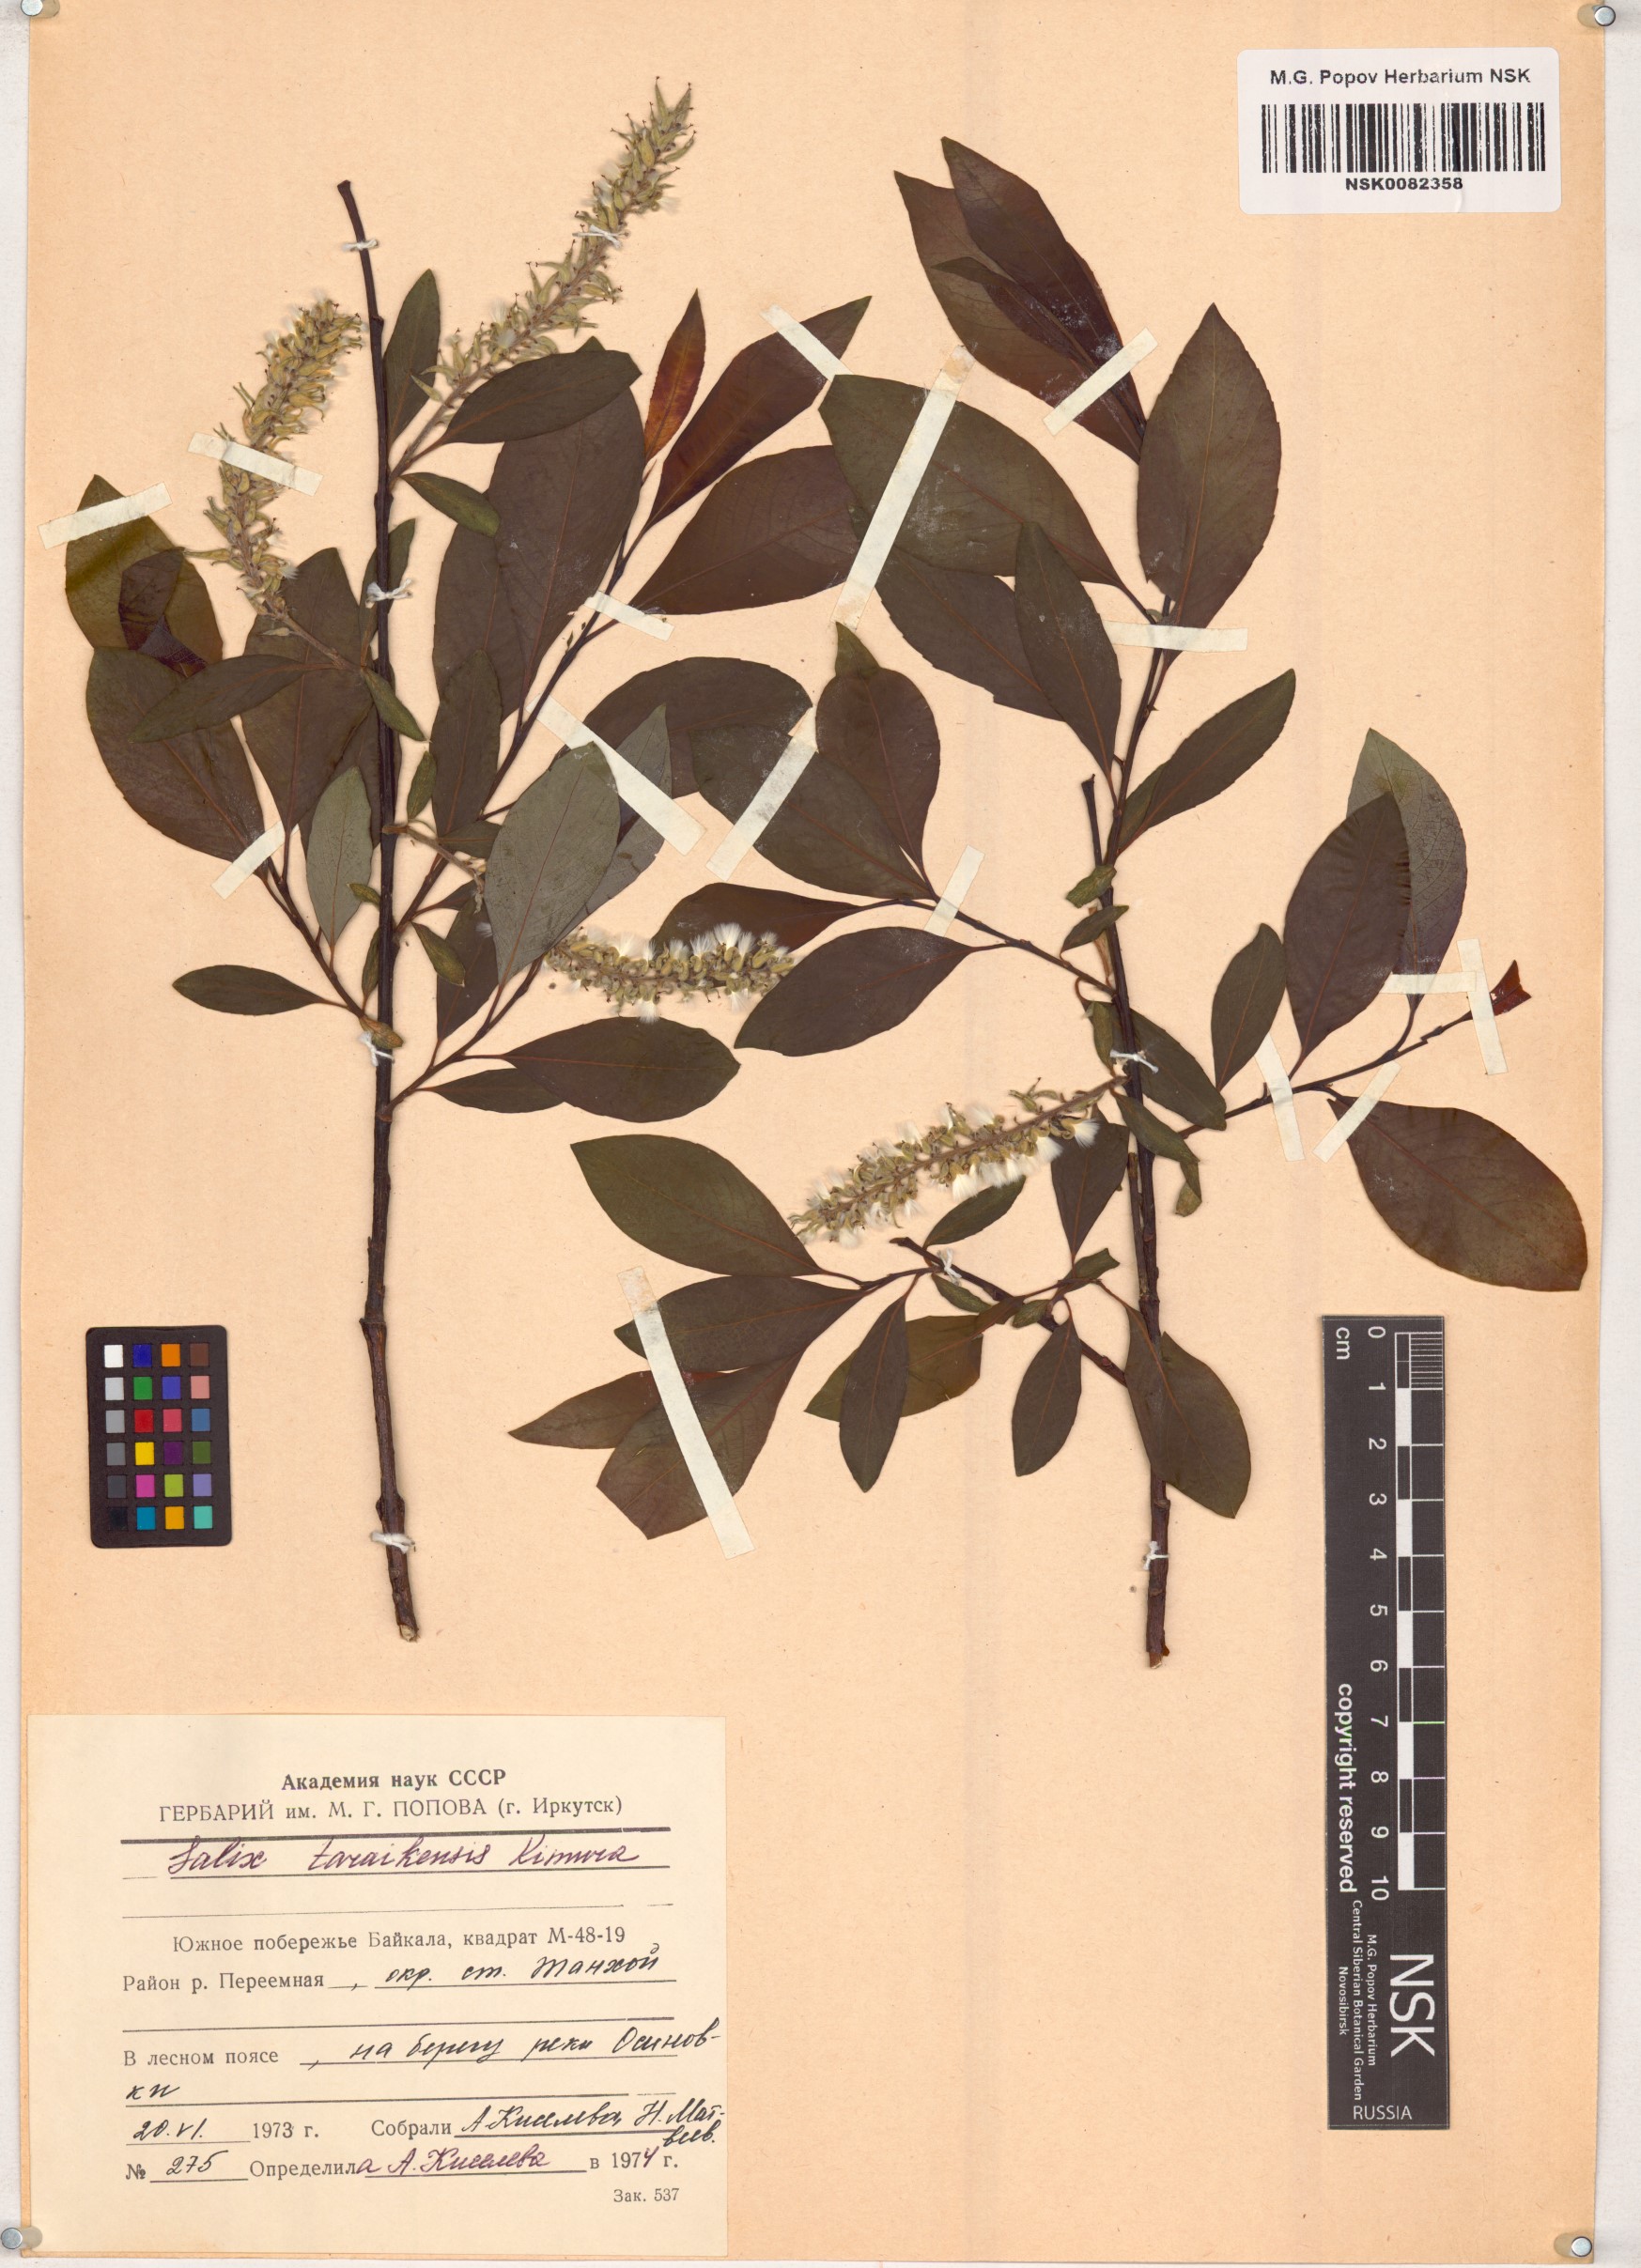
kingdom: Plantae
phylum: Tracheophyta
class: Magnoliopsida
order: Malpighiales
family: Salicaceae
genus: Salix
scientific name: Salix taraikensis
